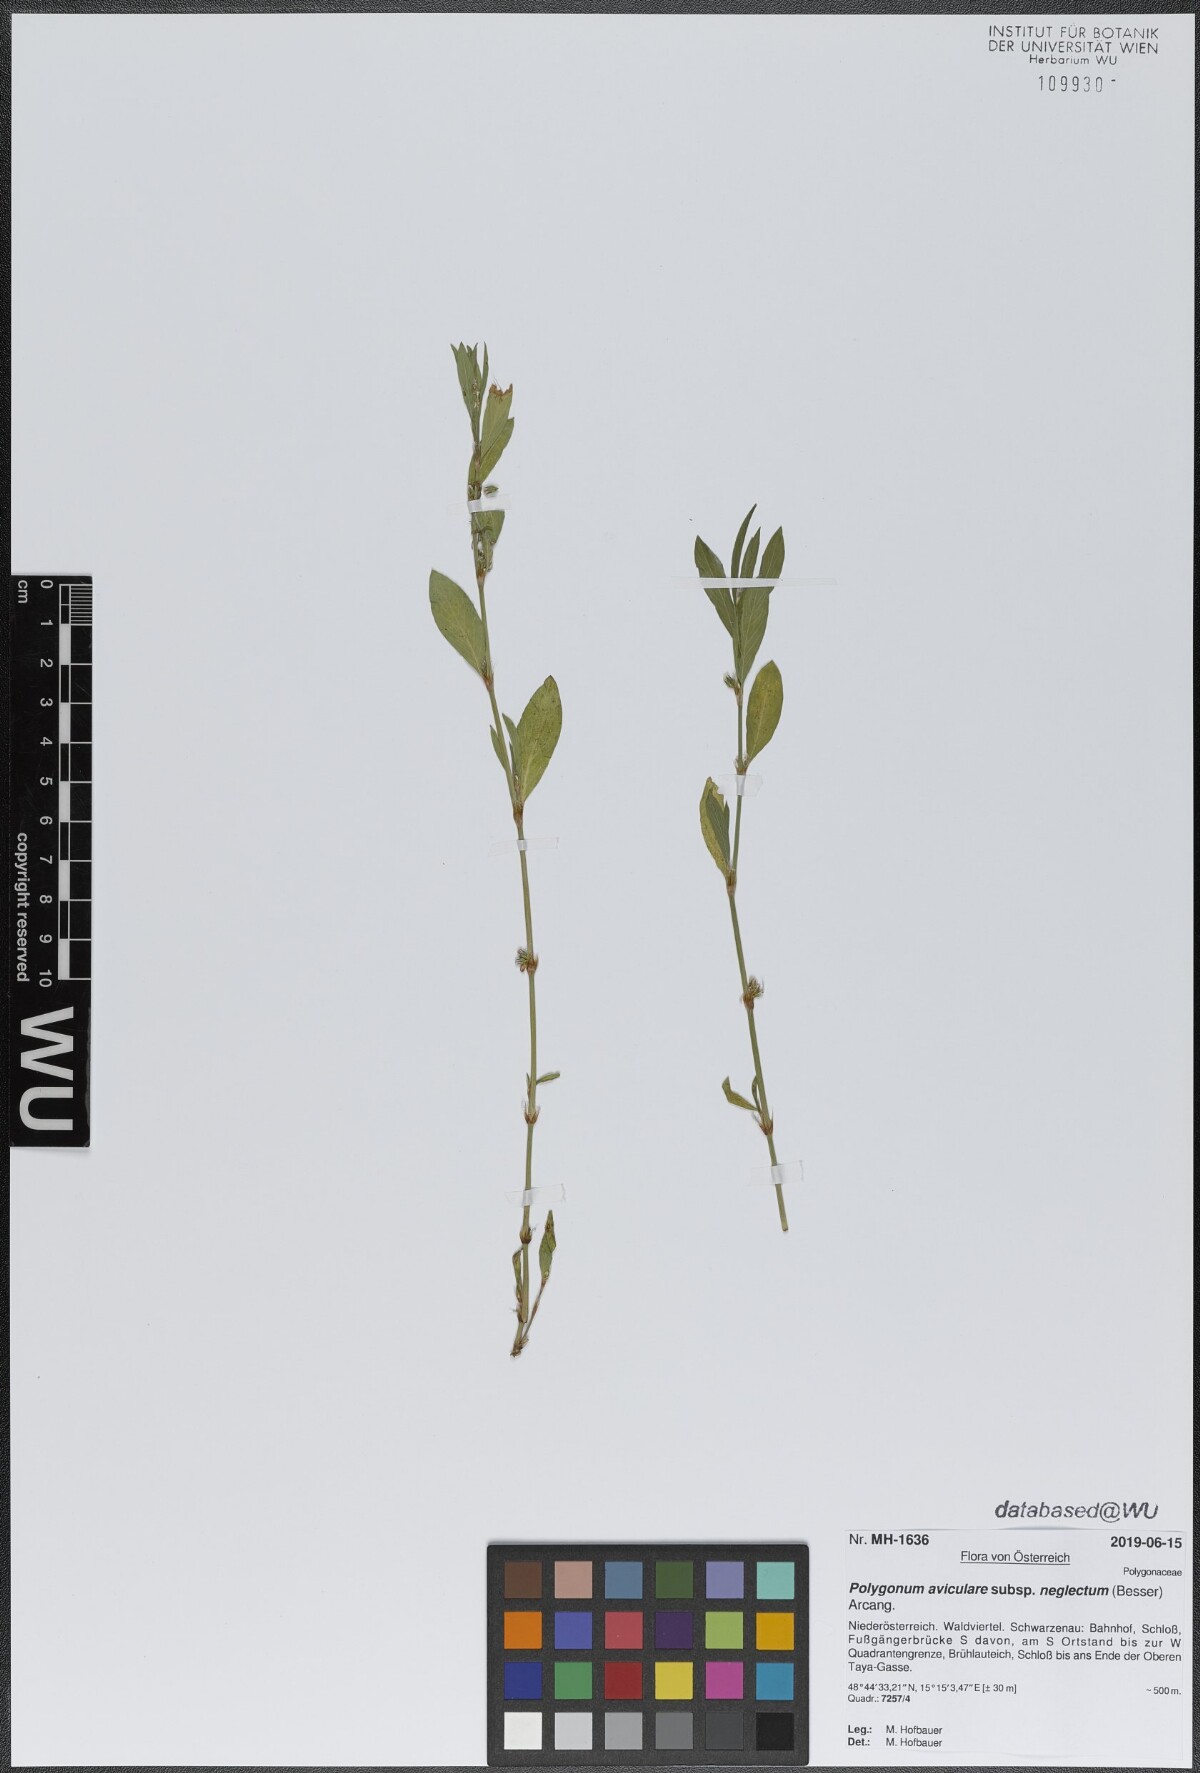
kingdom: Plantae
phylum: Tracheophyta
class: Magnoliopsida
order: Caryophyllales
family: Polygonaceae
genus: Polygonum
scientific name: Polygonum aviculare
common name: Prostrate knotweed
